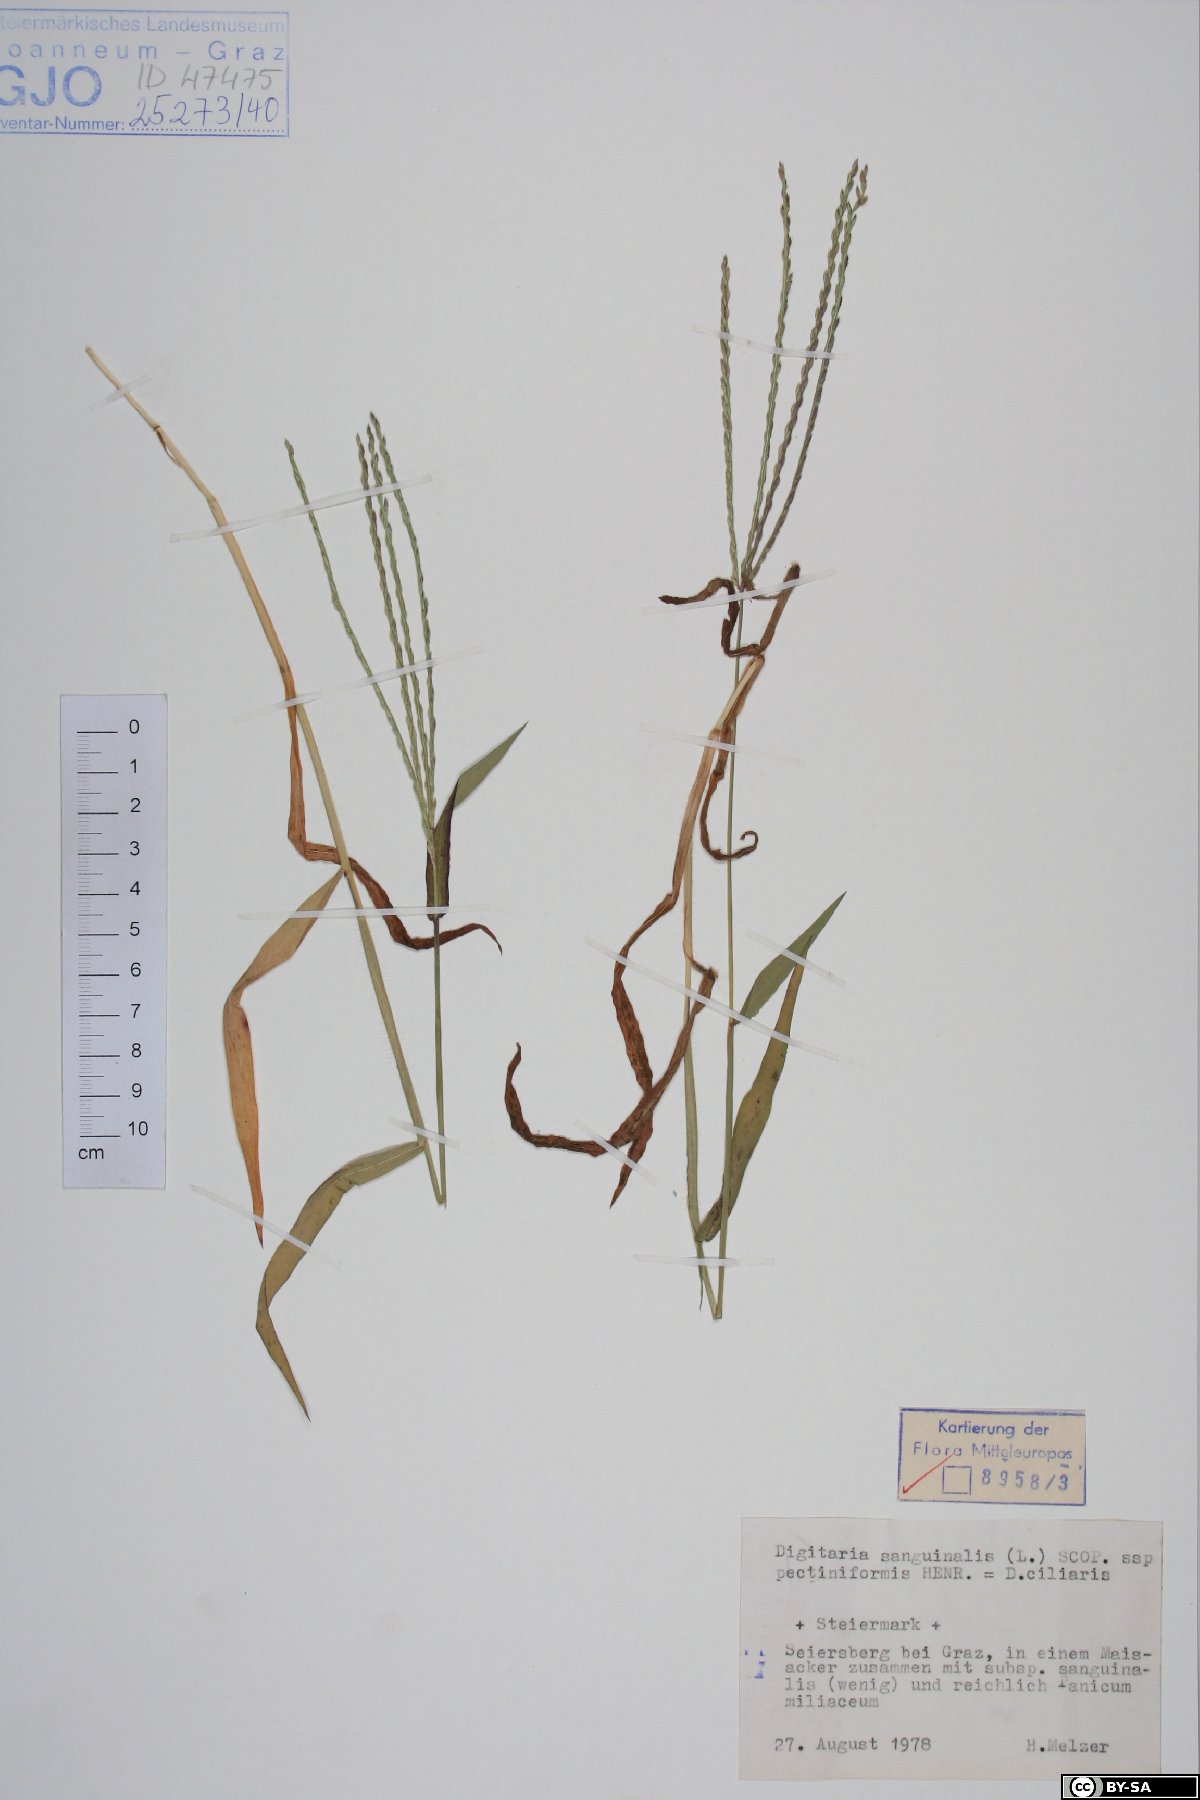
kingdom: Plantae
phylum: Tracheophyta
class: Liliopsida
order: Poales
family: Poaceae
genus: Digitaria
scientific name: Digitaria sanguinalis
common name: Hairy crabgrass
